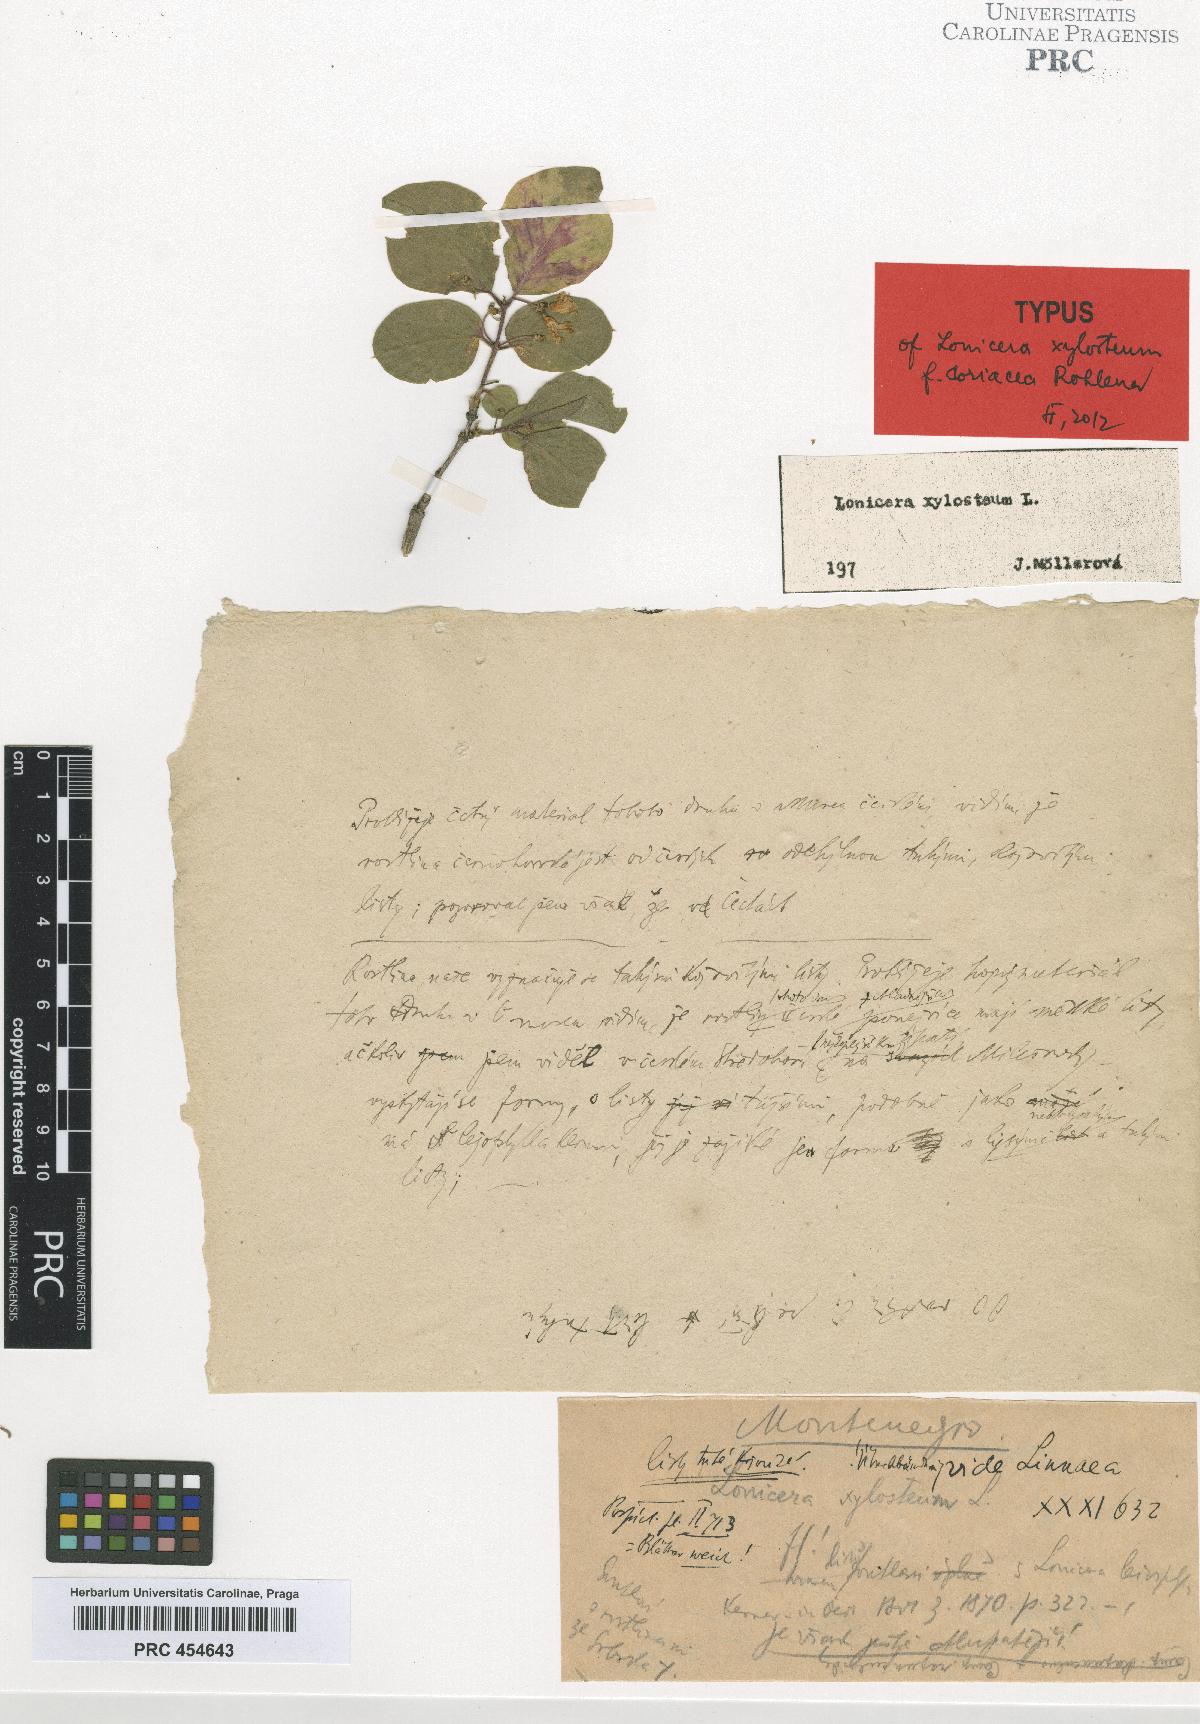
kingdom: Plantae
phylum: Tracheophyta
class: Magnoliopsida
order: Dipsacales
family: Caprifoliaceae
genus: Lonicera
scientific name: Lonicera xylosteum
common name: Fly honeysuckle
